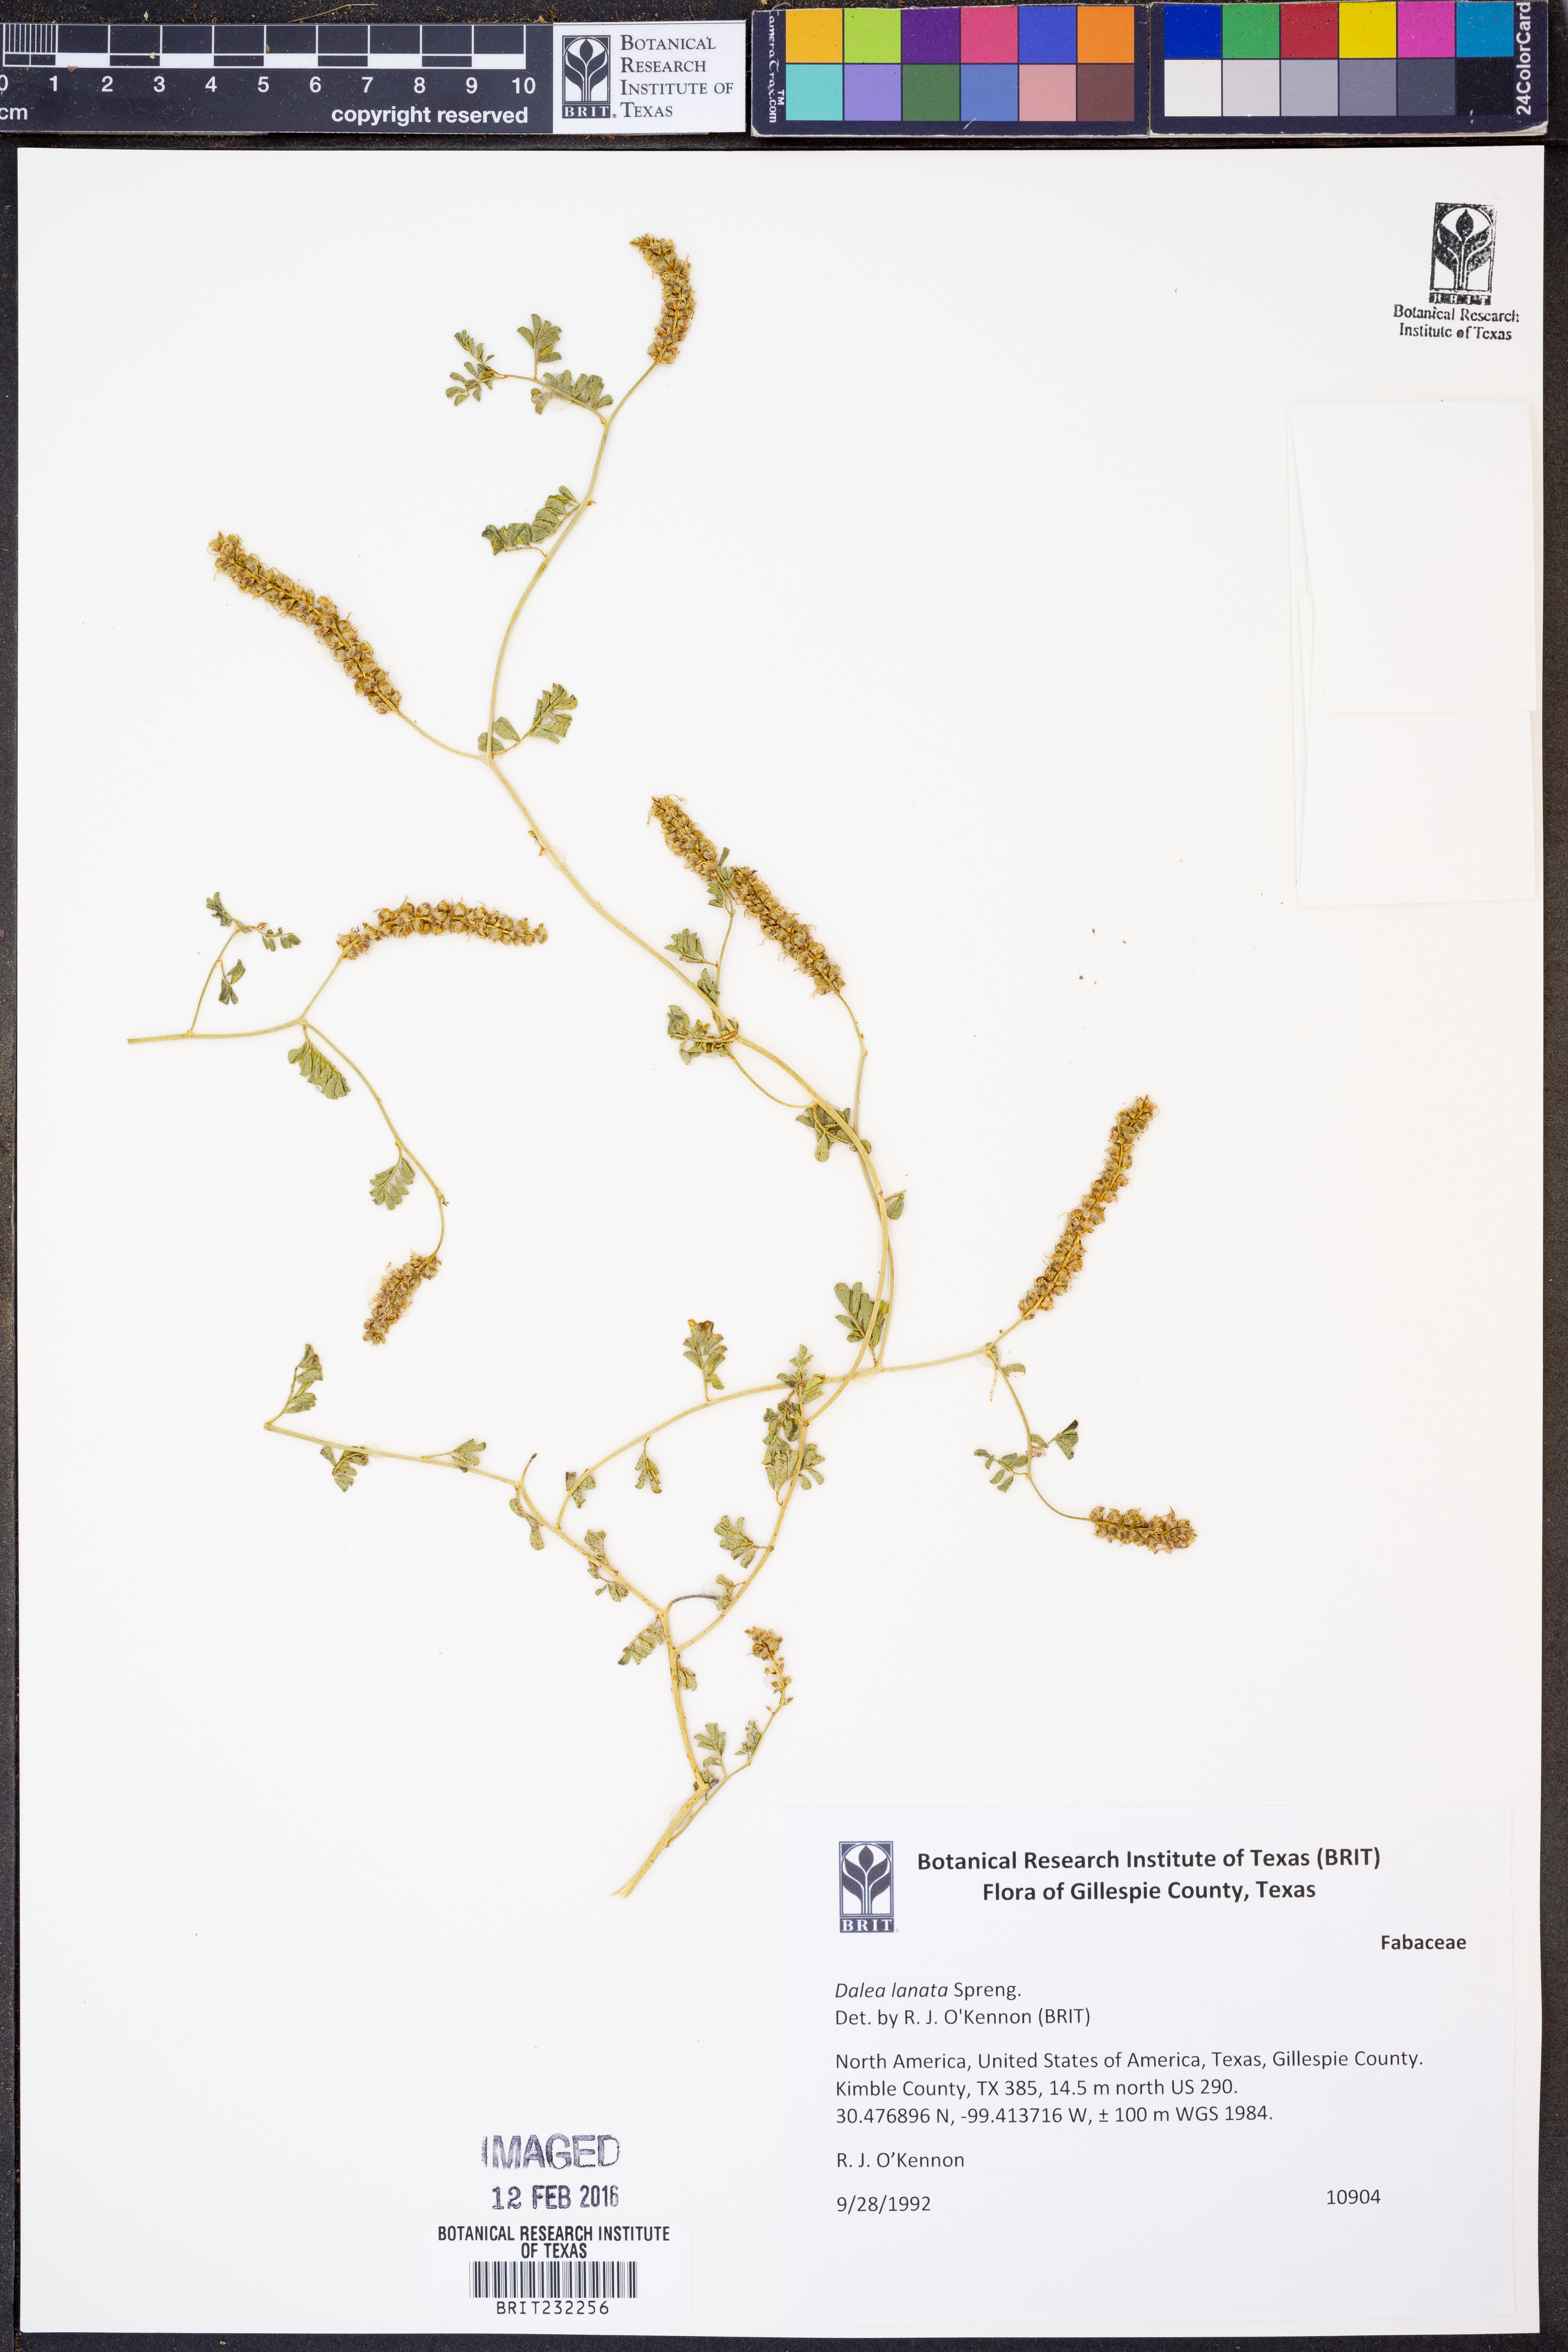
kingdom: Plantae
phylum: Tracheophyta
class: Magnoliopsida
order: Fabales
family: Fabaceae
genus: Dalea
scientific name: Dalea lanata
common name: Woolly dalea
